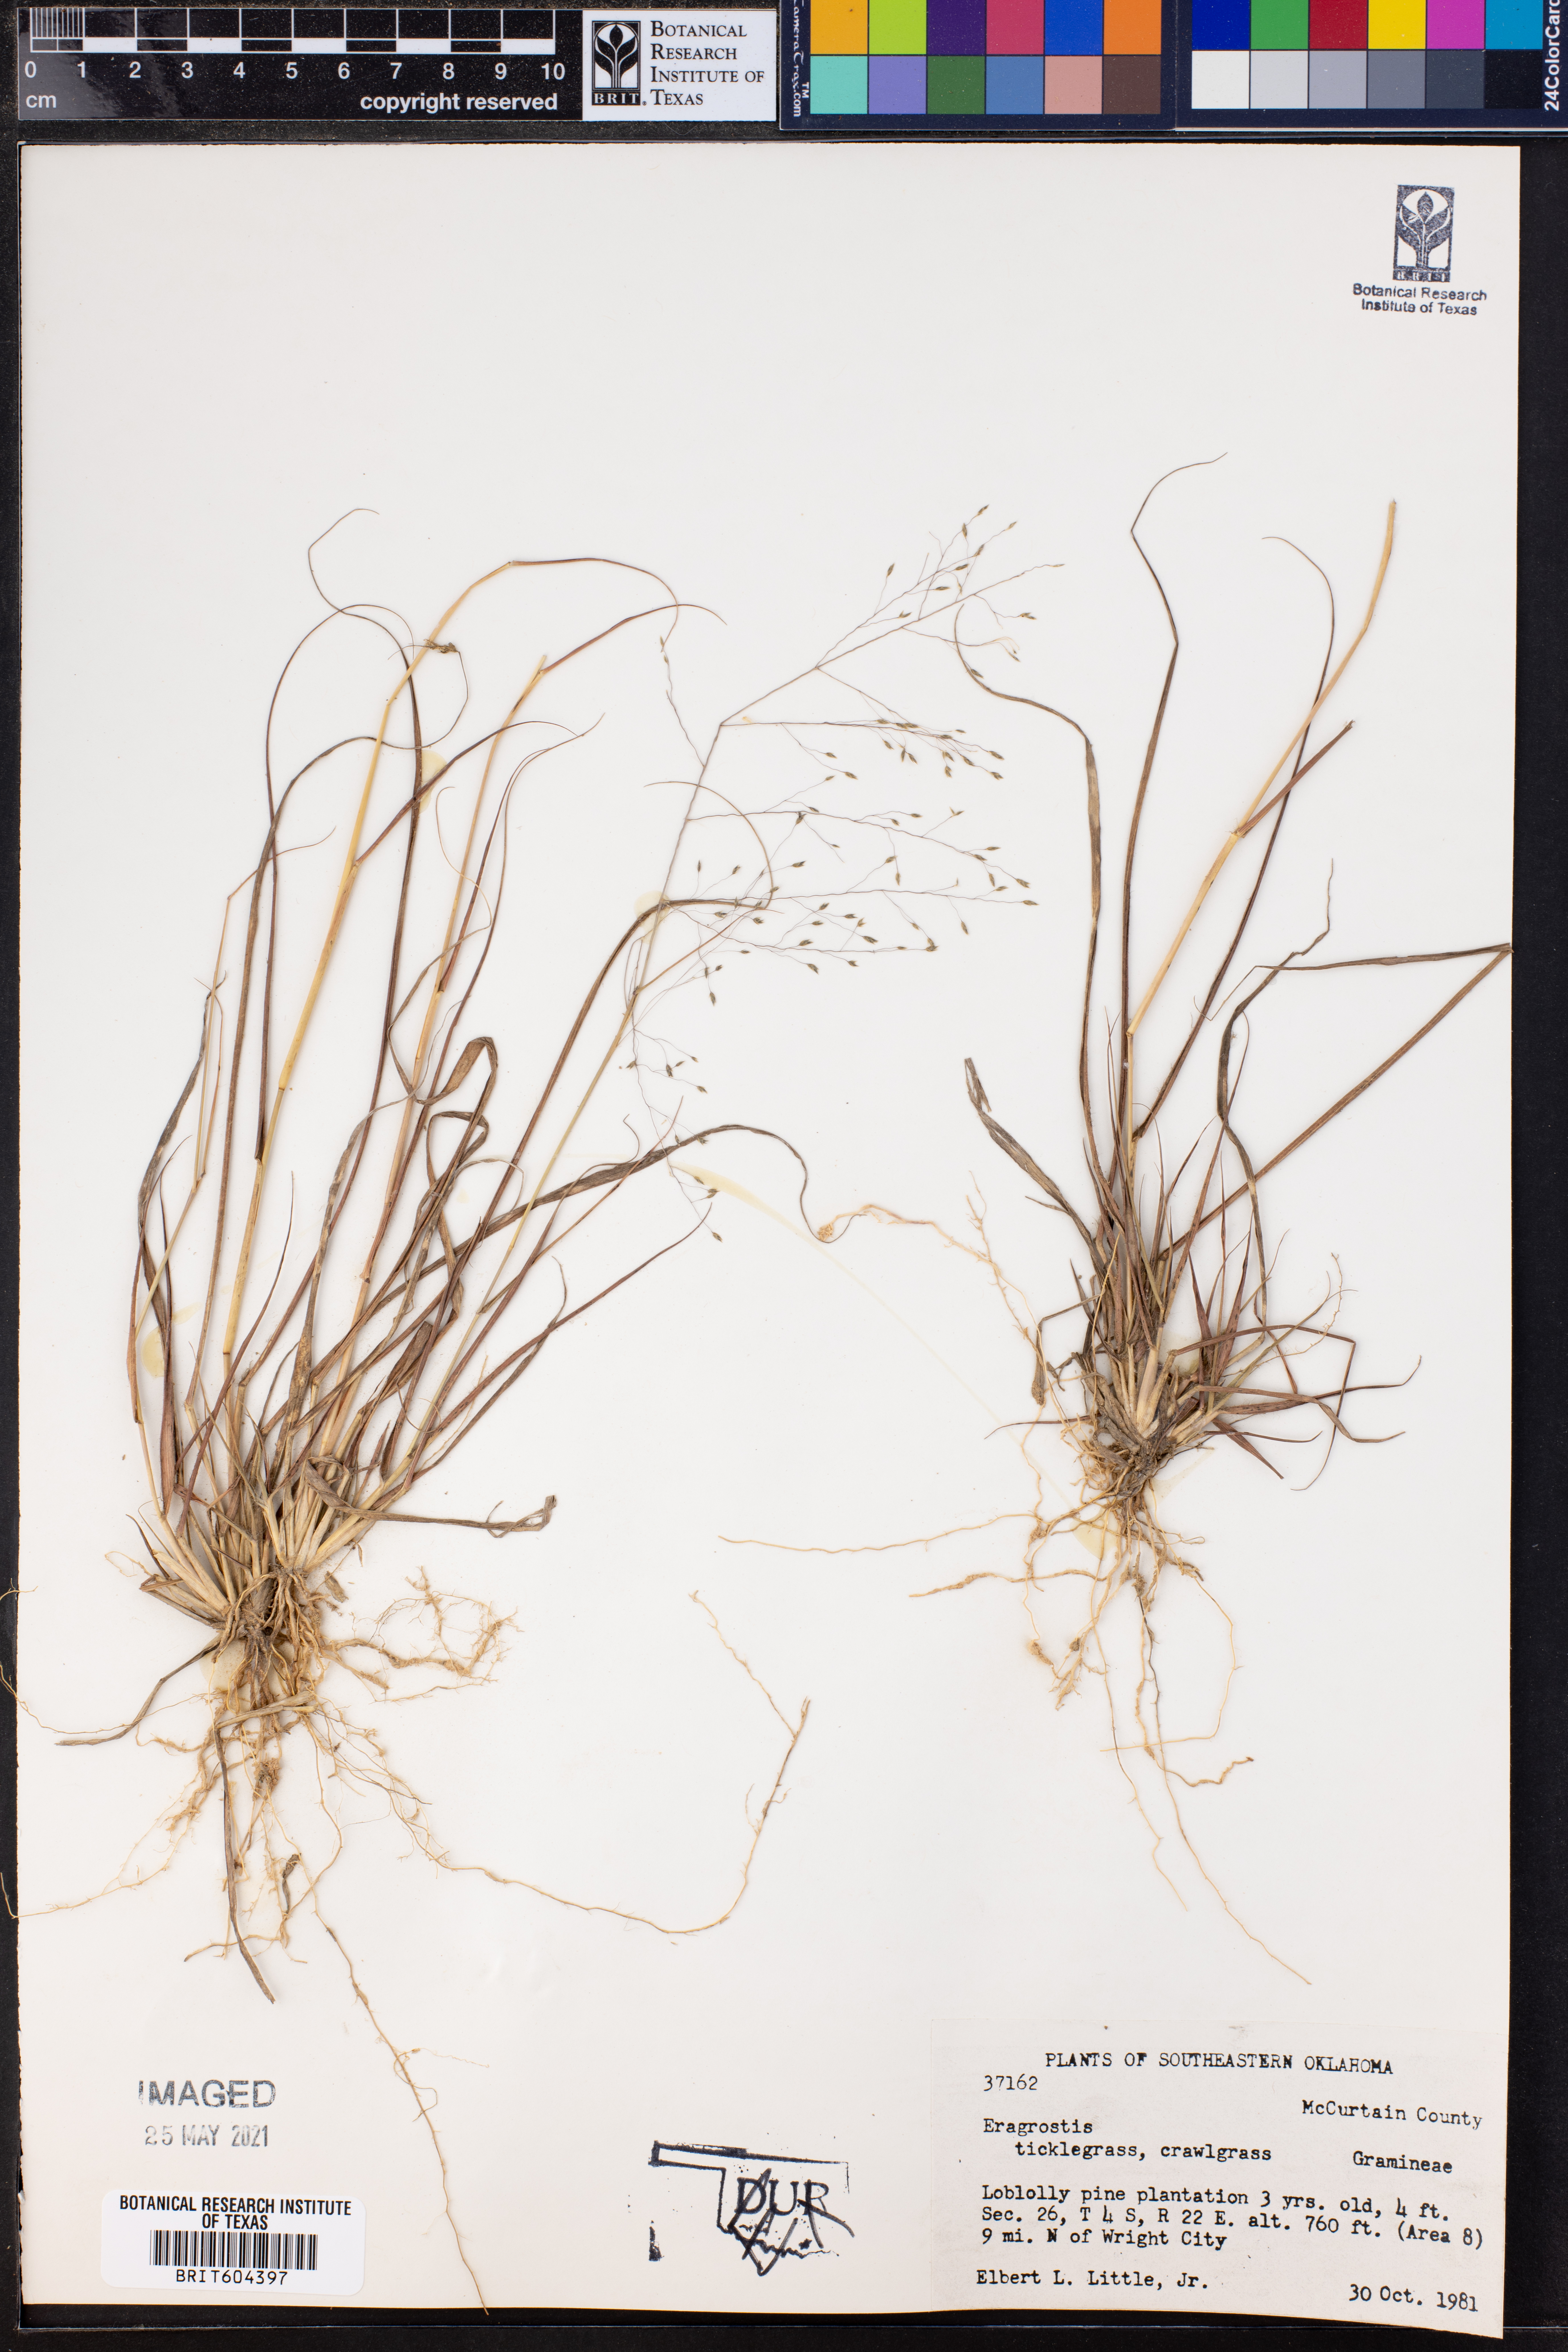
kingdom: Plantae
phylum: Tracheophyta
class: Liliopsida
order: Poales
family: Poaceae
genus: Eragrostis
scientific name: Eragrostis
